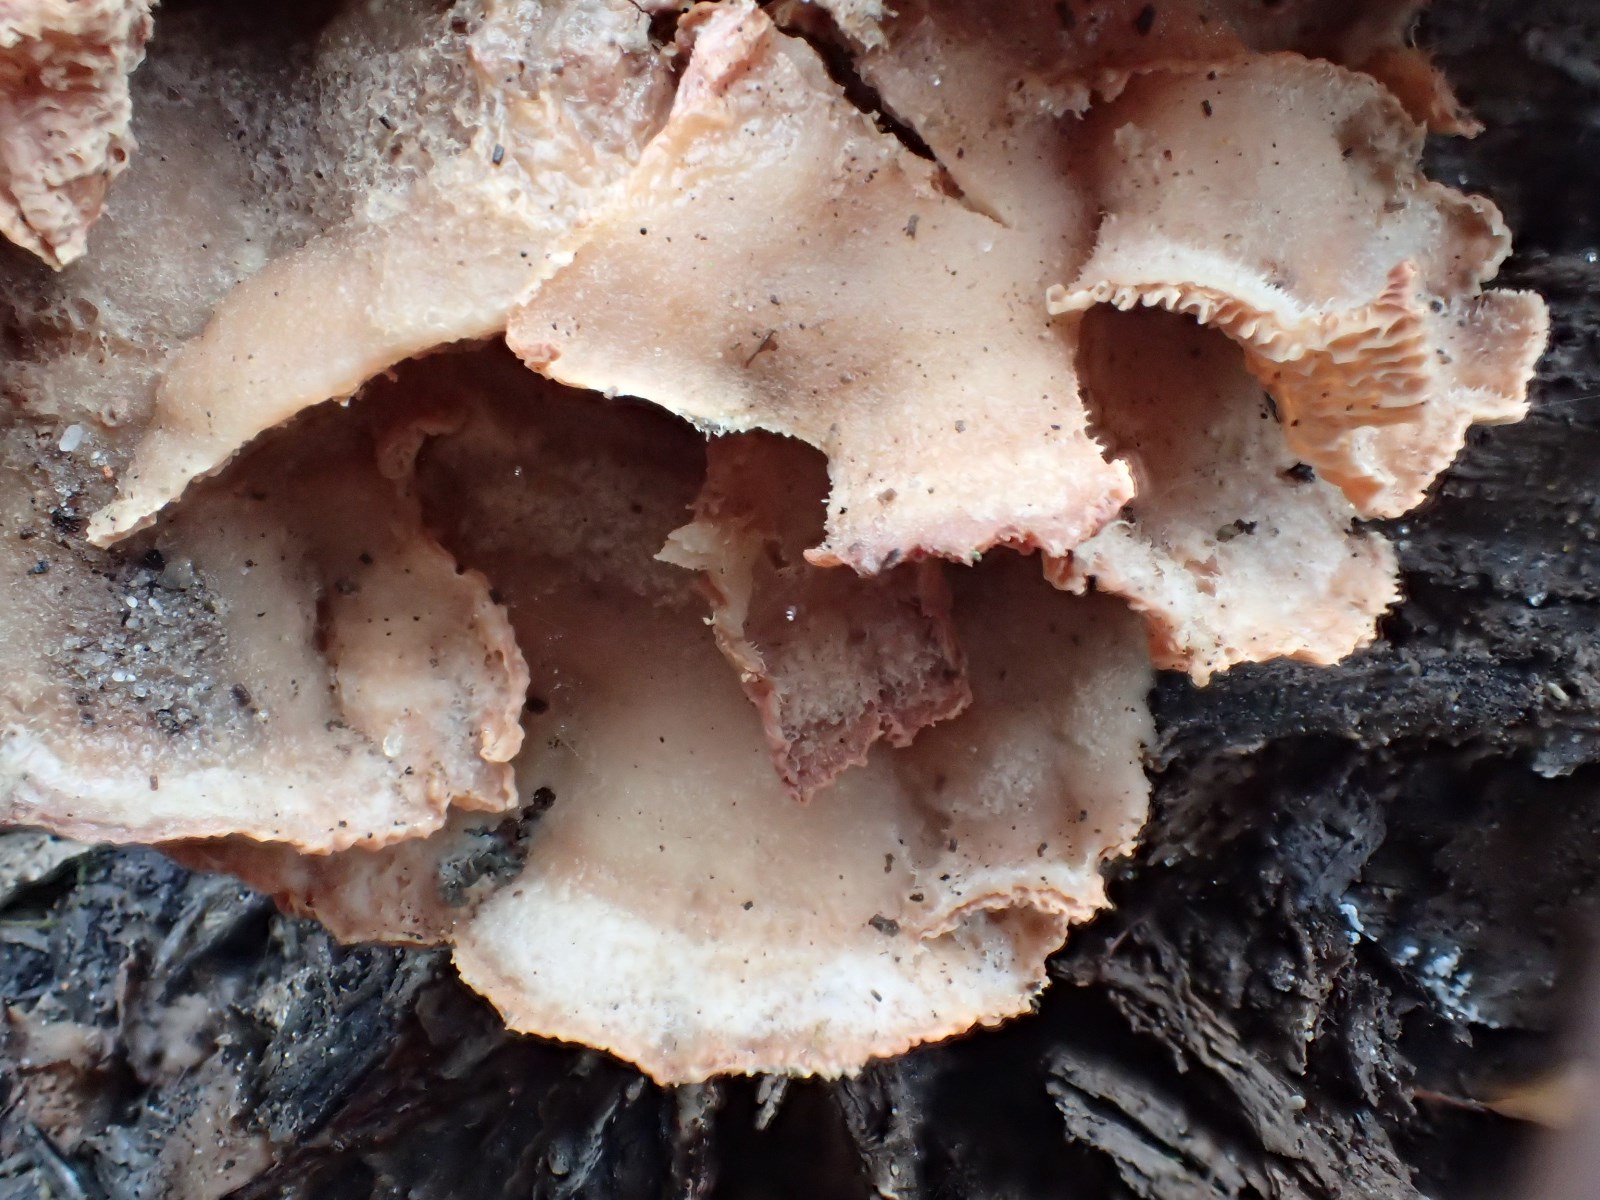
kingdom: Fungi
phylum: Basidiomycota
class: Agaricomycetes
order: Polyporales
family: Meruliaceae
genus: Phlebia
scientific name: Phlebia tremellosa
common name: bævrende åresvamp
